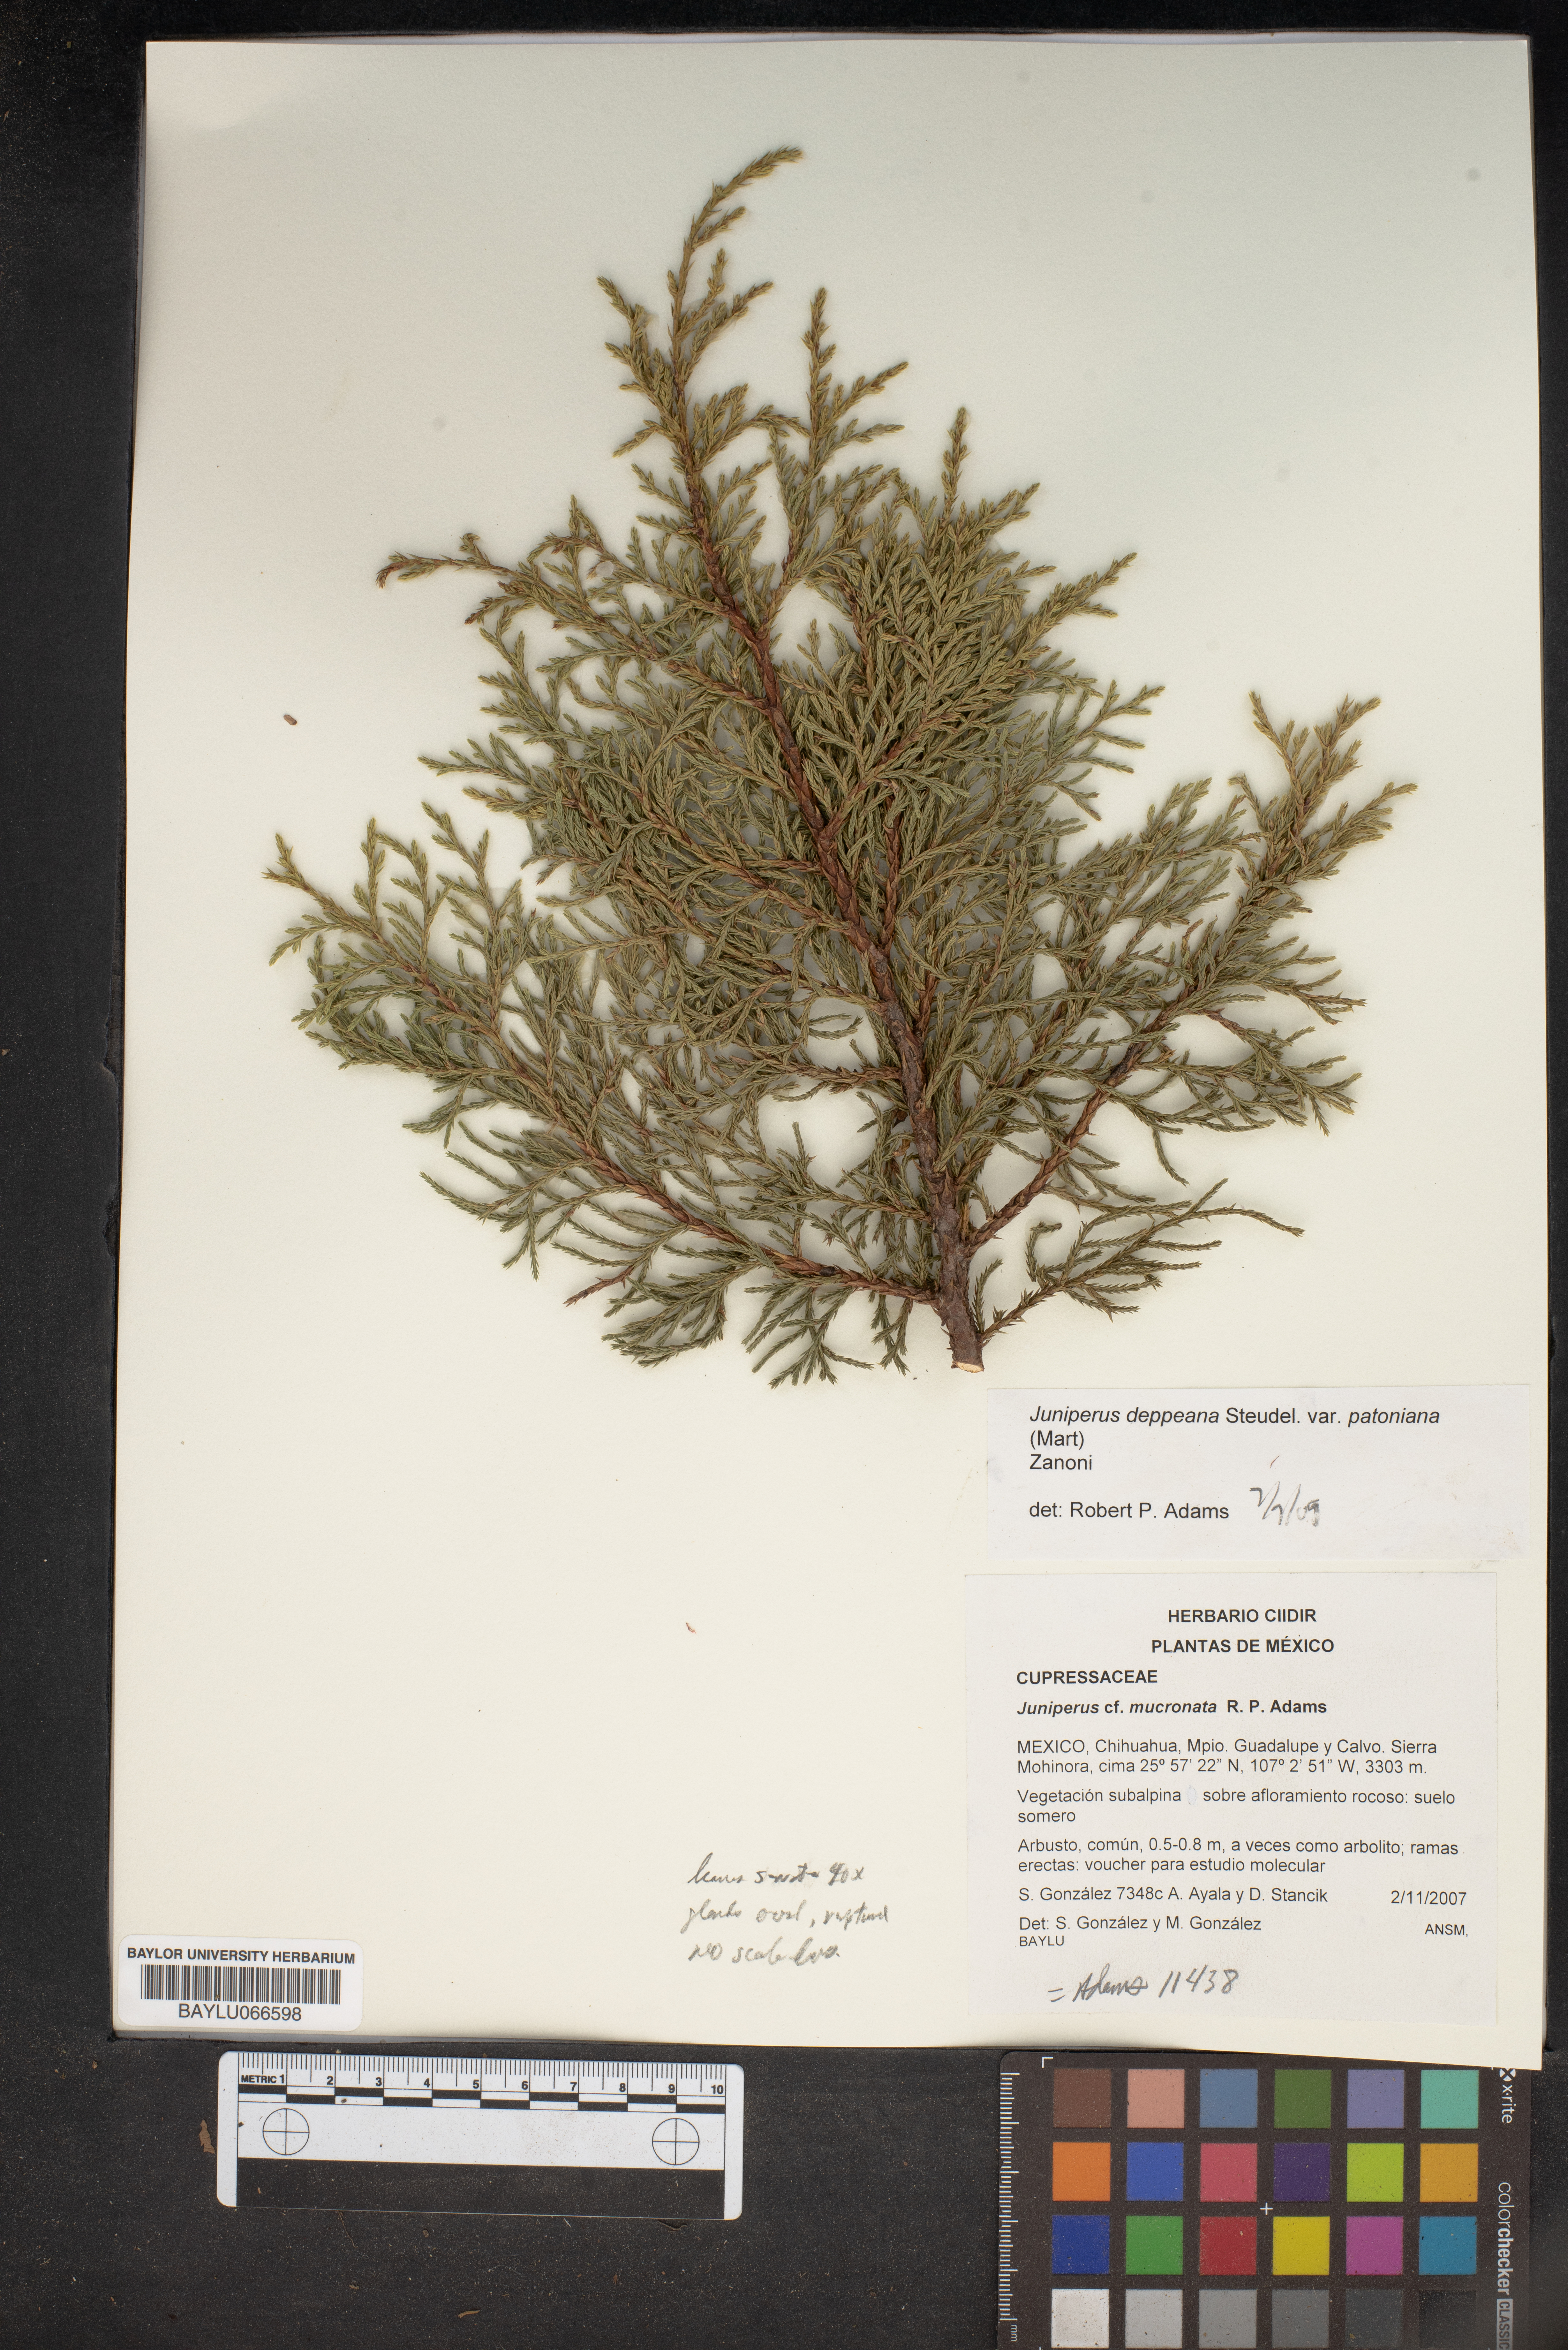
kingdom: Plantae
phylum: Tracheophyta
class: Pinopsida
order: Pinales
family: Cupressaceae
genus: Juniperus
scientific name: Juniperus blancoi
